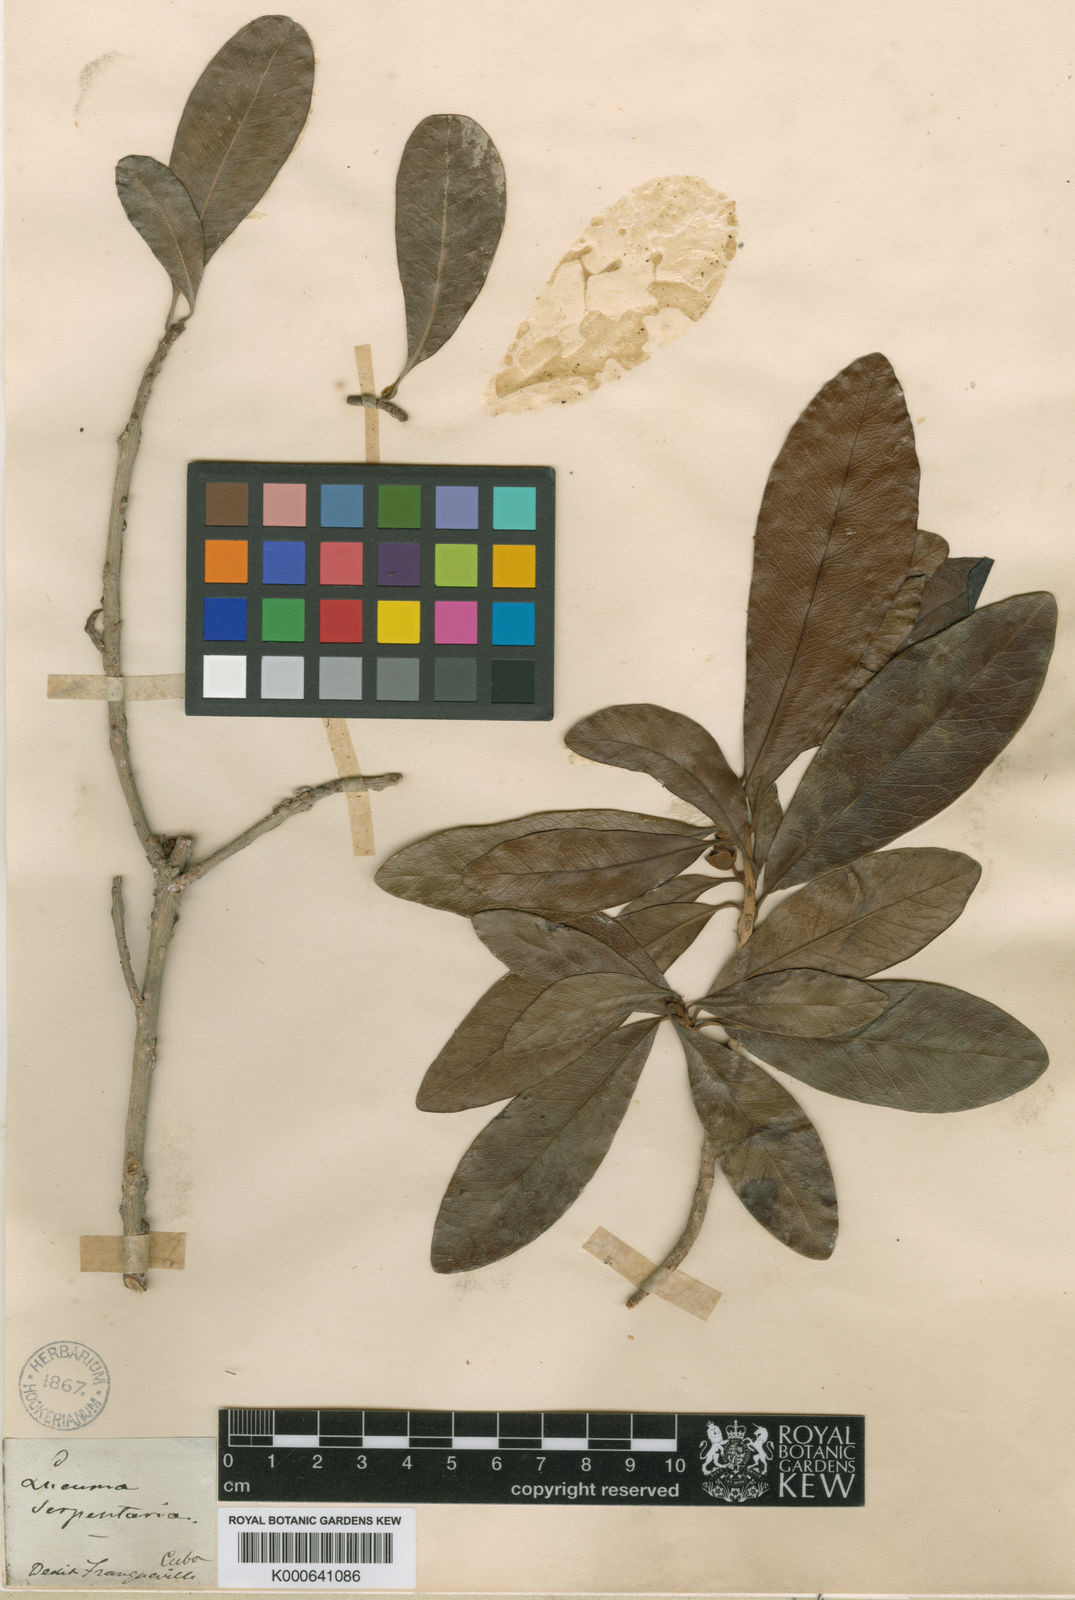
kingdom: Plantae
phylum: Tracheophyta
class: Magnoliopsida
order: Ericales
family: Sapotaceae
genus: Pouteria
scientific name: Pouteria dominigensis
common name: Jacana
